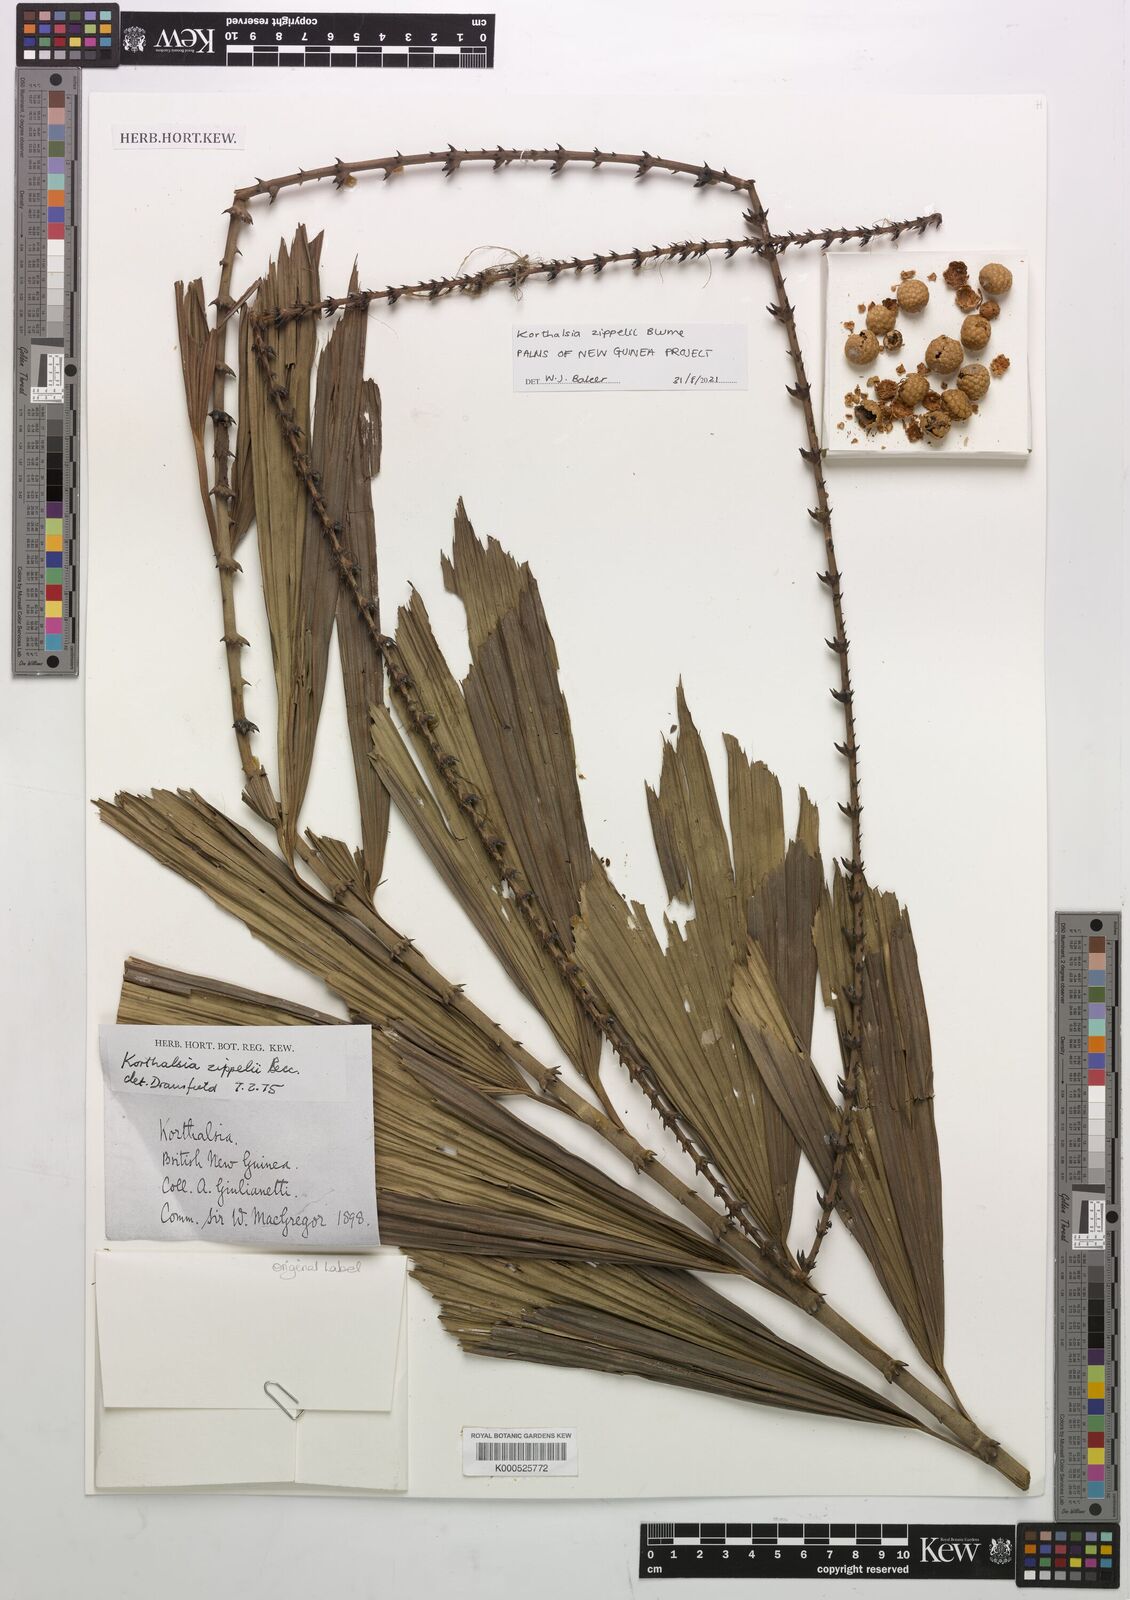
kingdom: Plantae
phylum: Tracheophyta
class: Liliopsida
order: Arecales
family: Arecaceae
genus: Korthalsia
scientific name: Korthalsia zippelii
